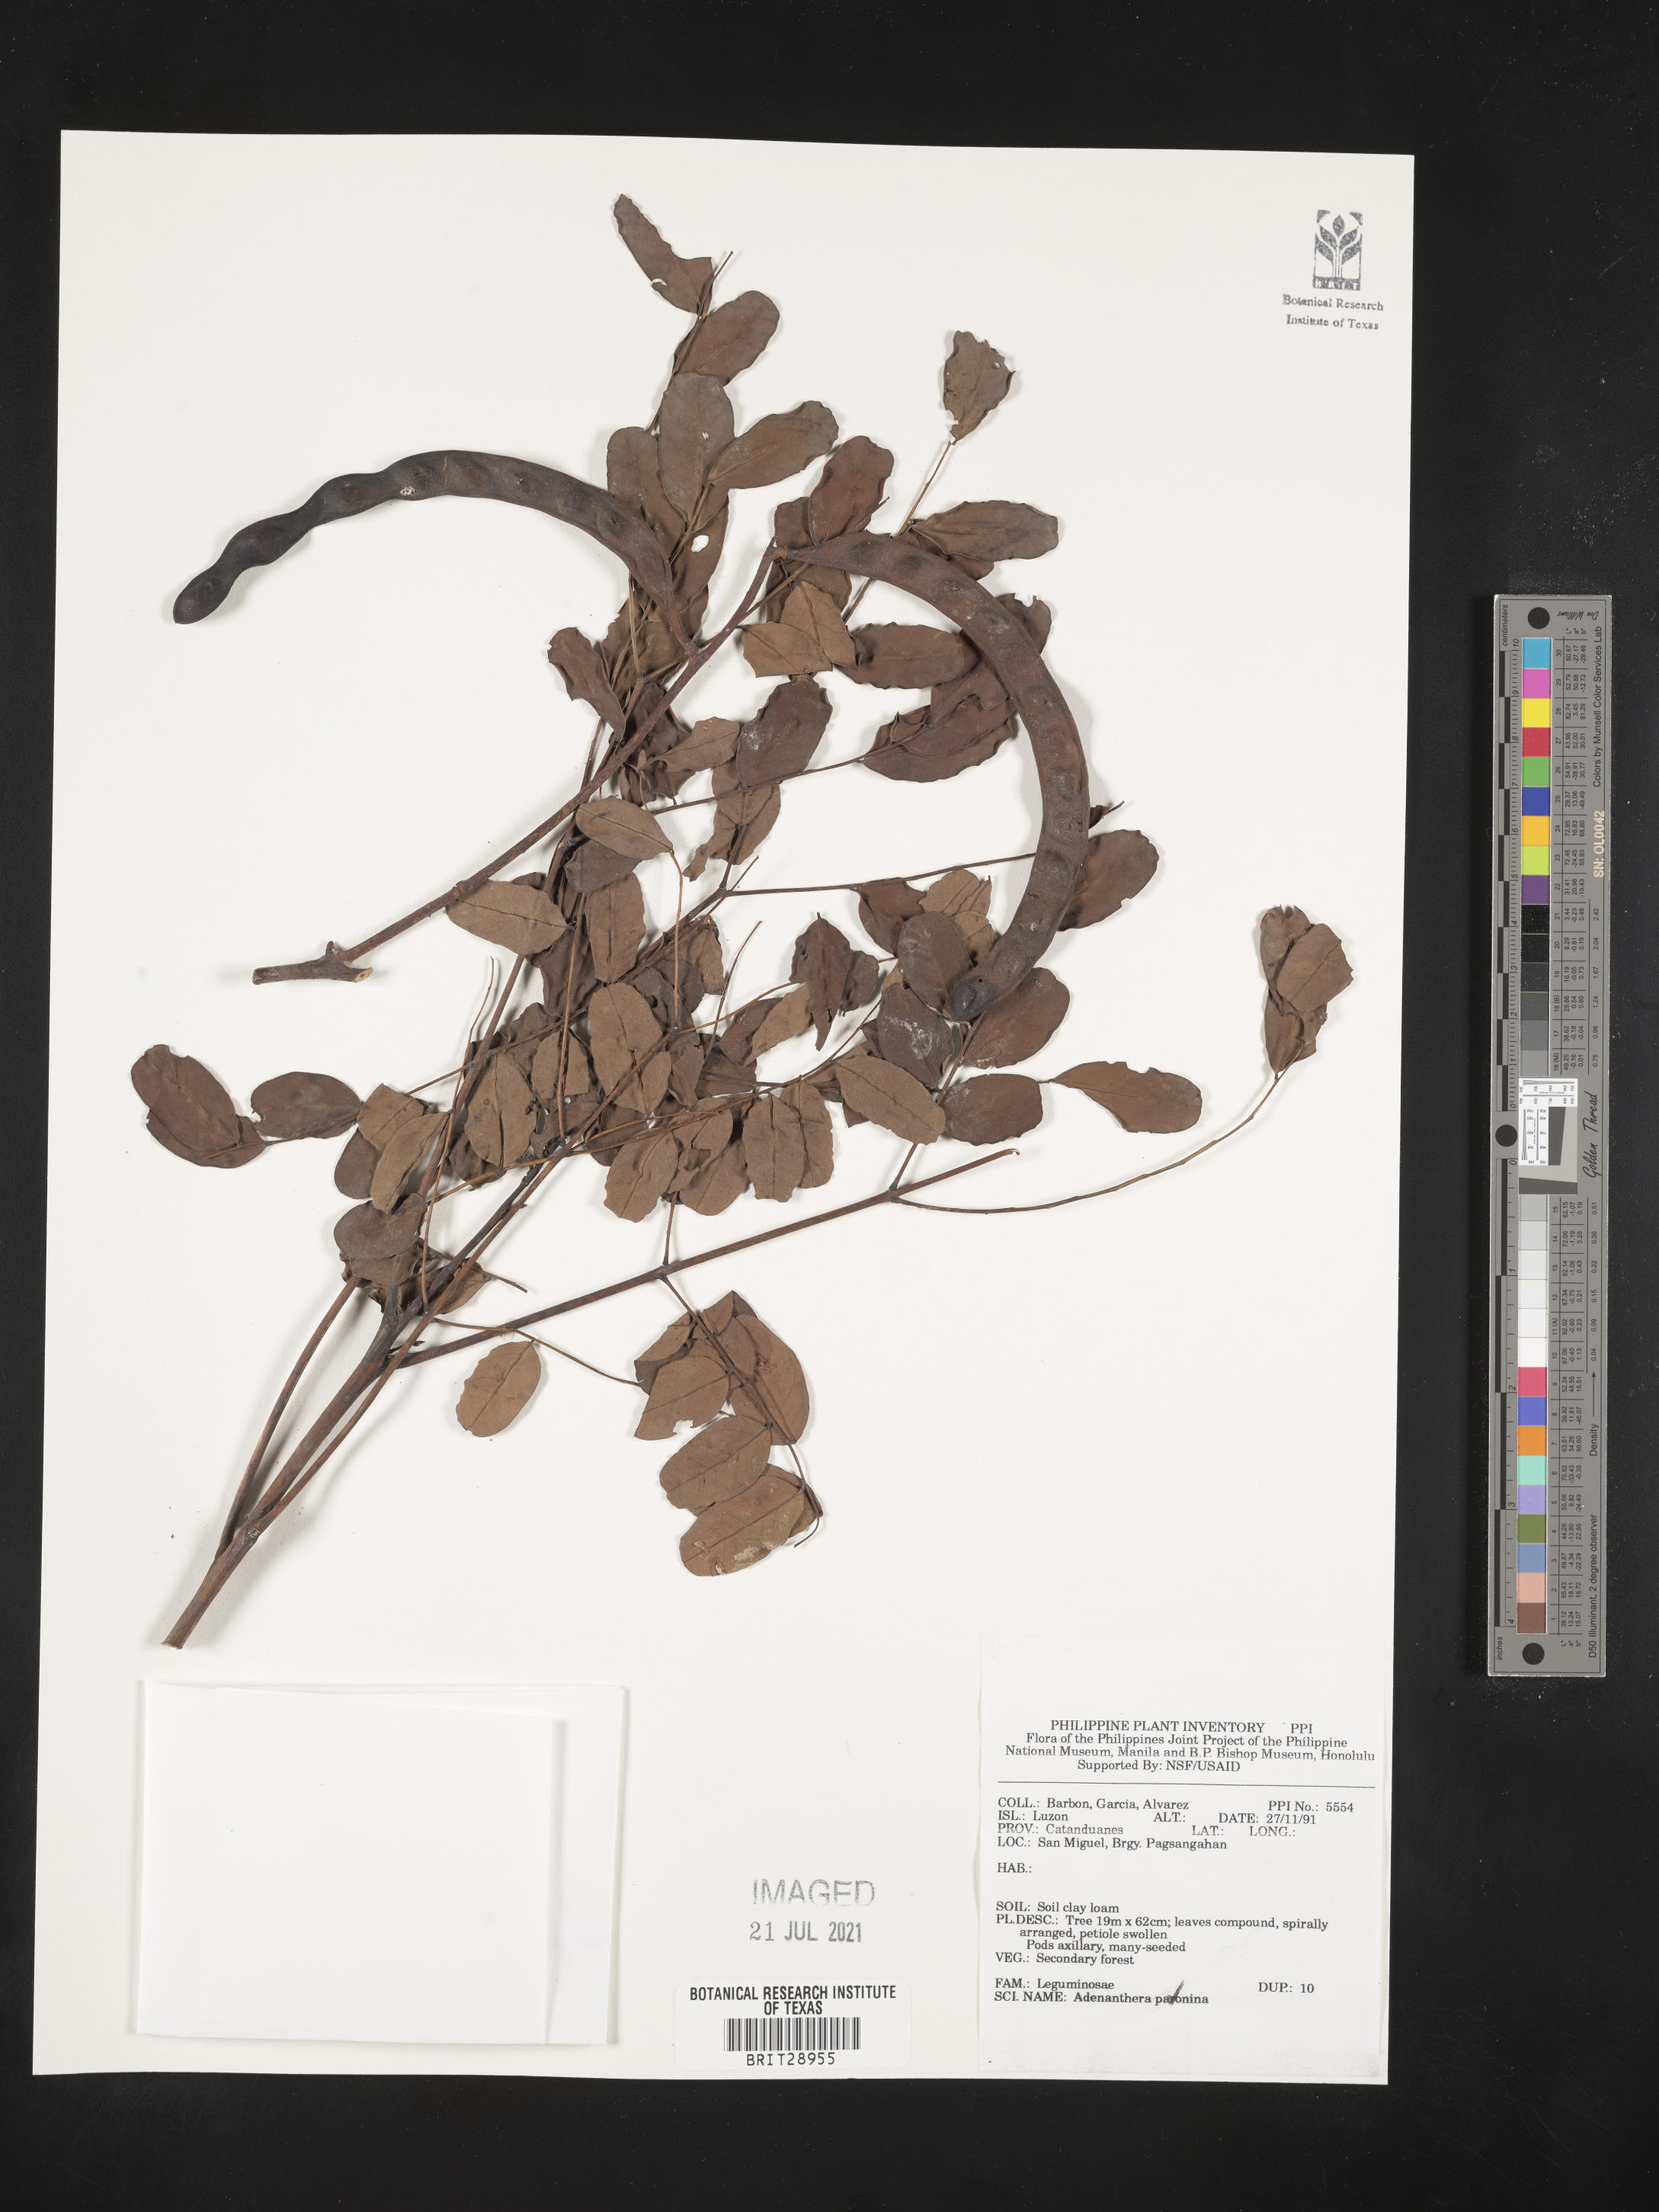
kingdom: Plantae
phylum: Tracheophyta
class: Magnoliopsida
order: Fabales
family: Fabaceae
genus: Adenanthera
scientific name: Adenanthera pavonina
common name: Red beadtree
